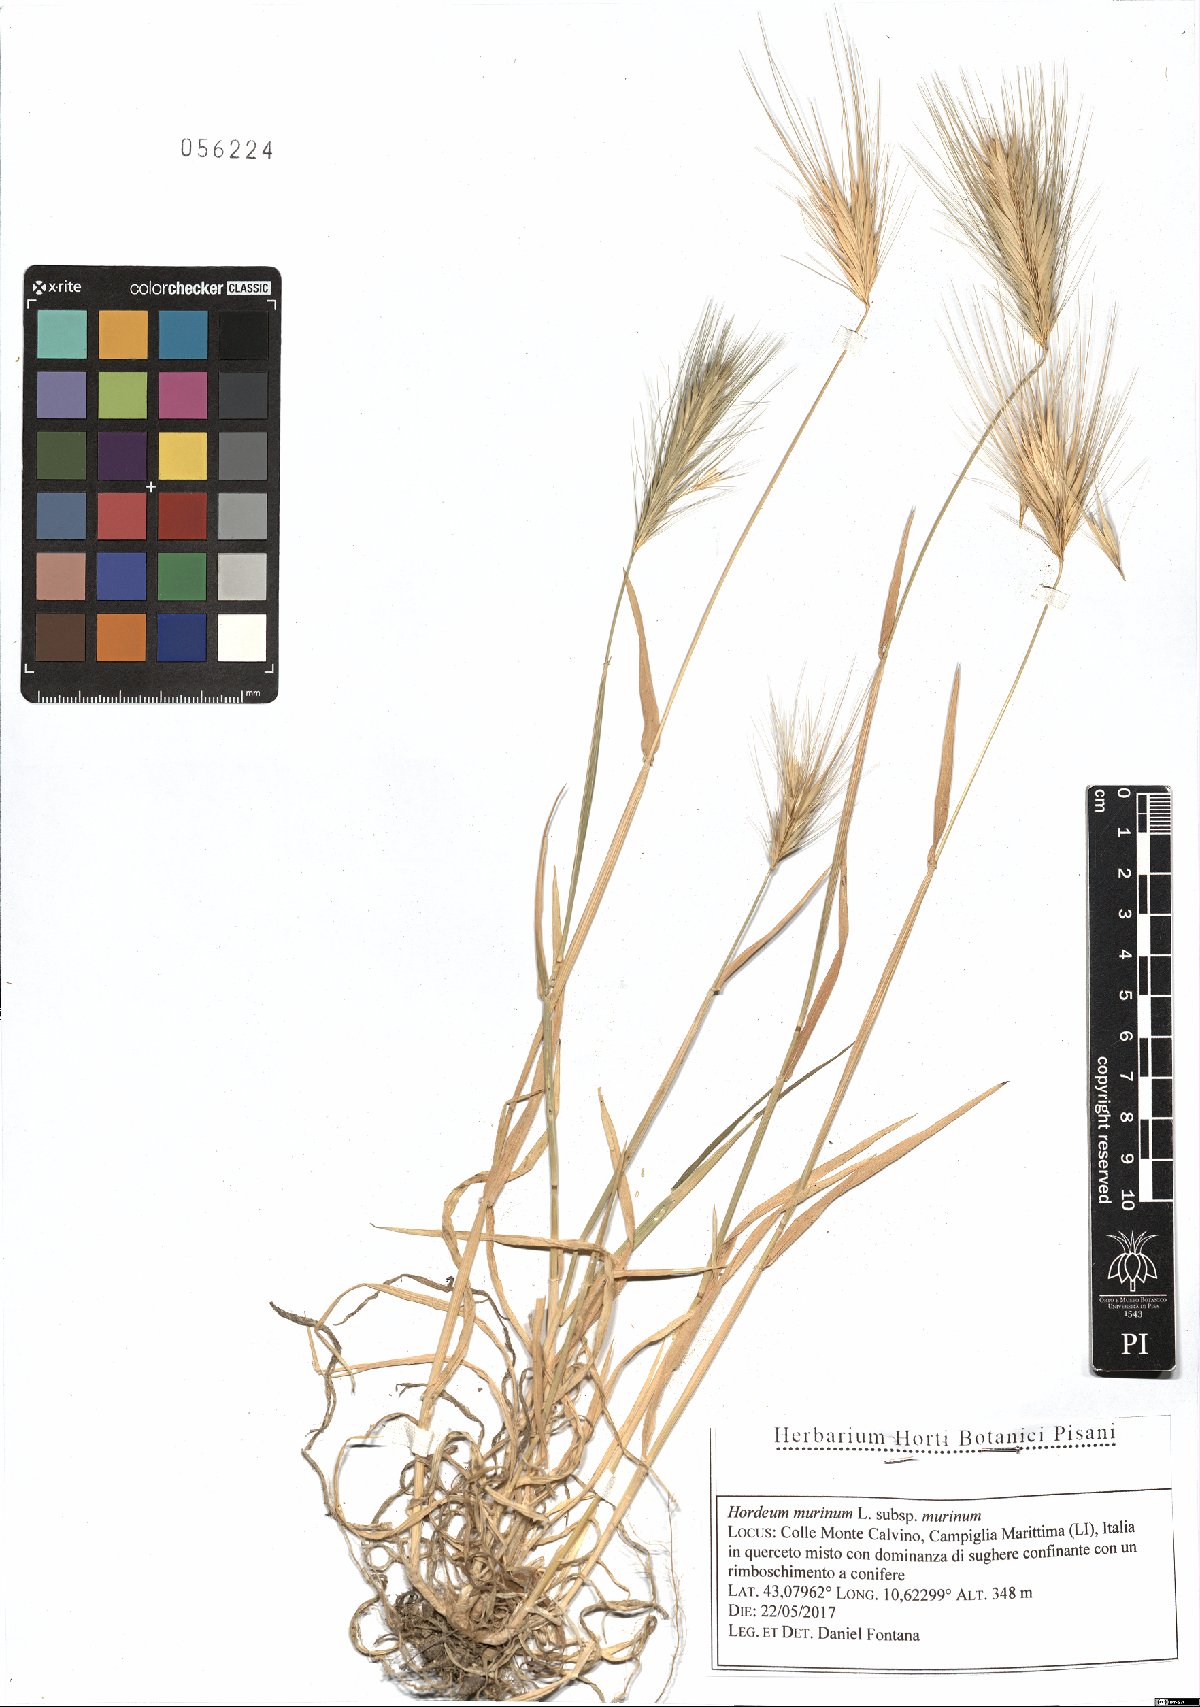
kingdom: Plantae
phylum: Tracheophyta
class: Liliopsida
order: Poales
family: Poaceae
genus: Hordeum
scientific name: Hordeum murinum
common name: Wall barley
